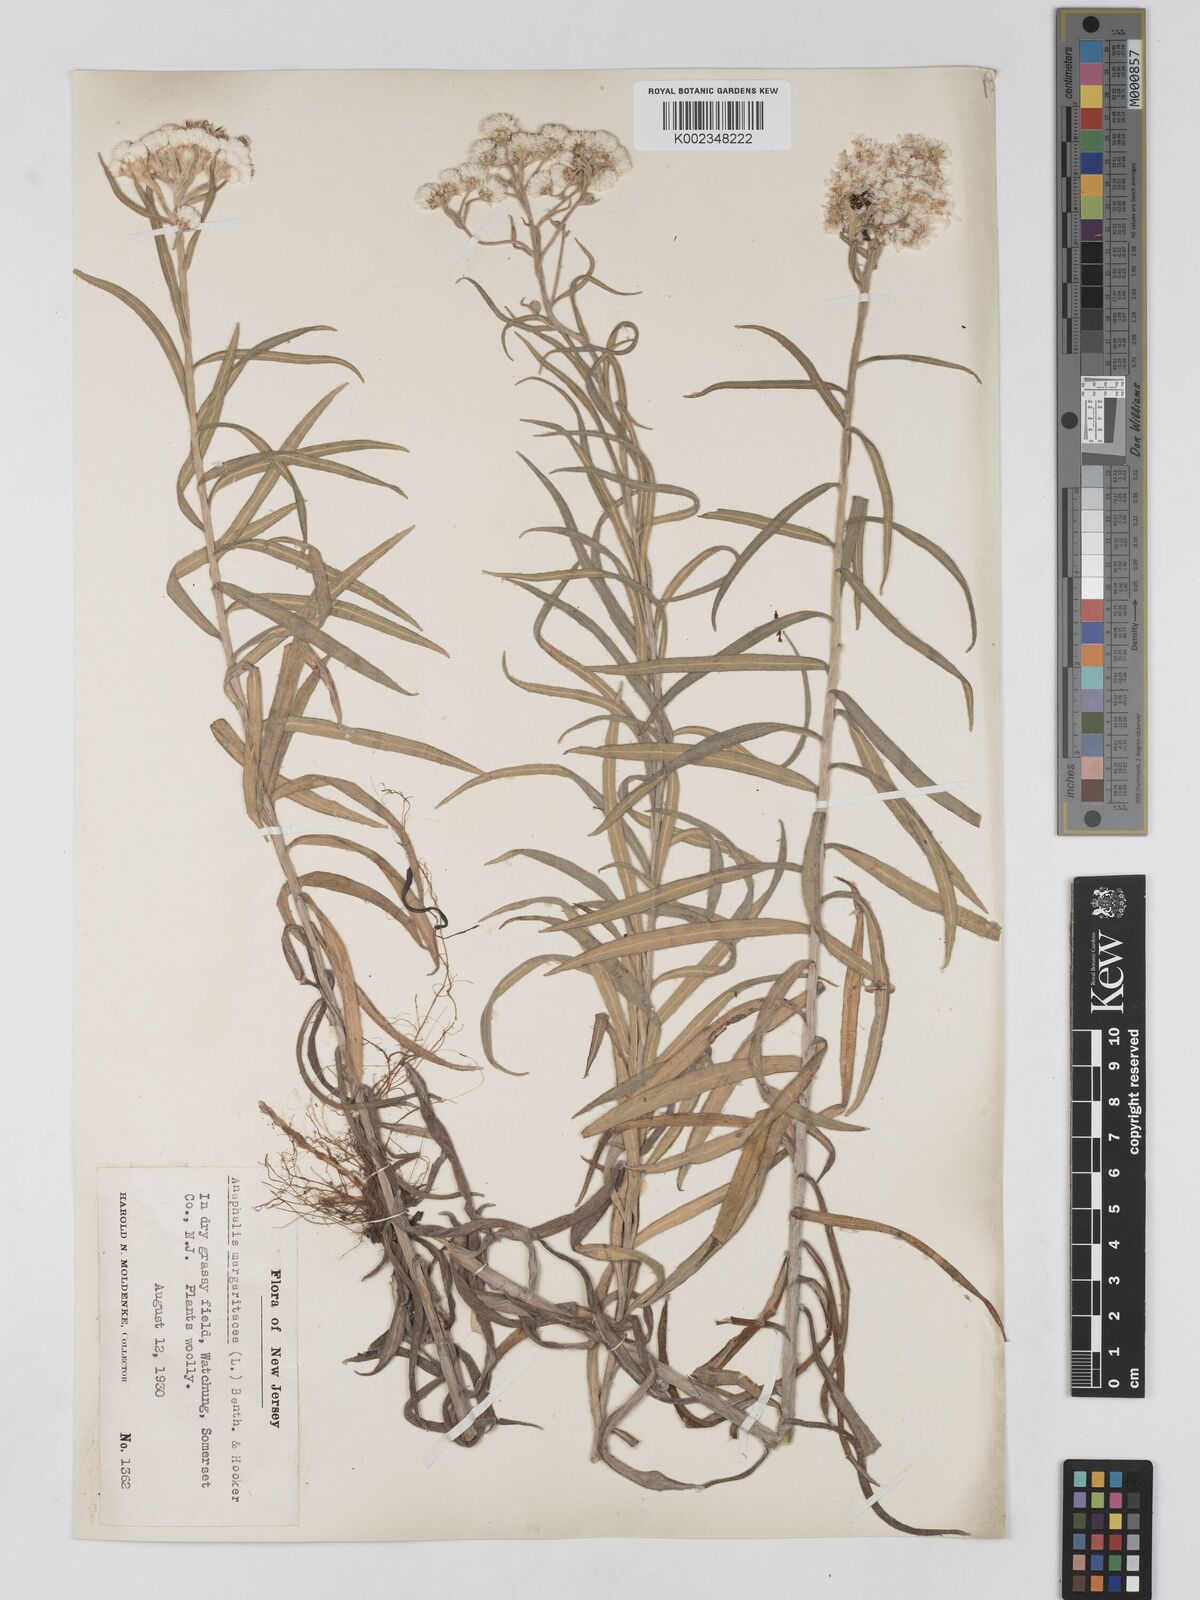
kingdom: Plantae
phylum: Tracheophyta
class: Magnoliopsida
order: Asterales
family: Asteraceae
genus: Anaphalis
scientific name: Anaphalis margaritacea
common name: Pearly everlasting
